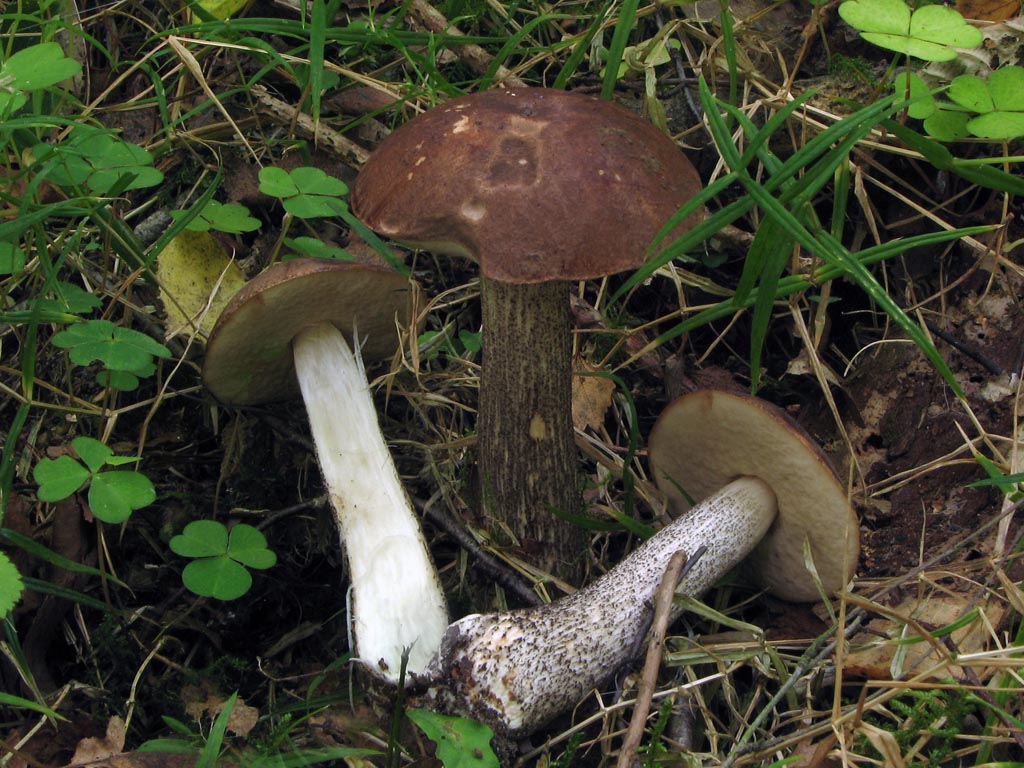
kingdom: Fungi
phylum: Basidiomycota
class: Agaricomycetes
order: Boletales
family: Boletaceae
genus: Leccinum
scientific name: Leccinum scabrum
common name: brun skælrørhat
